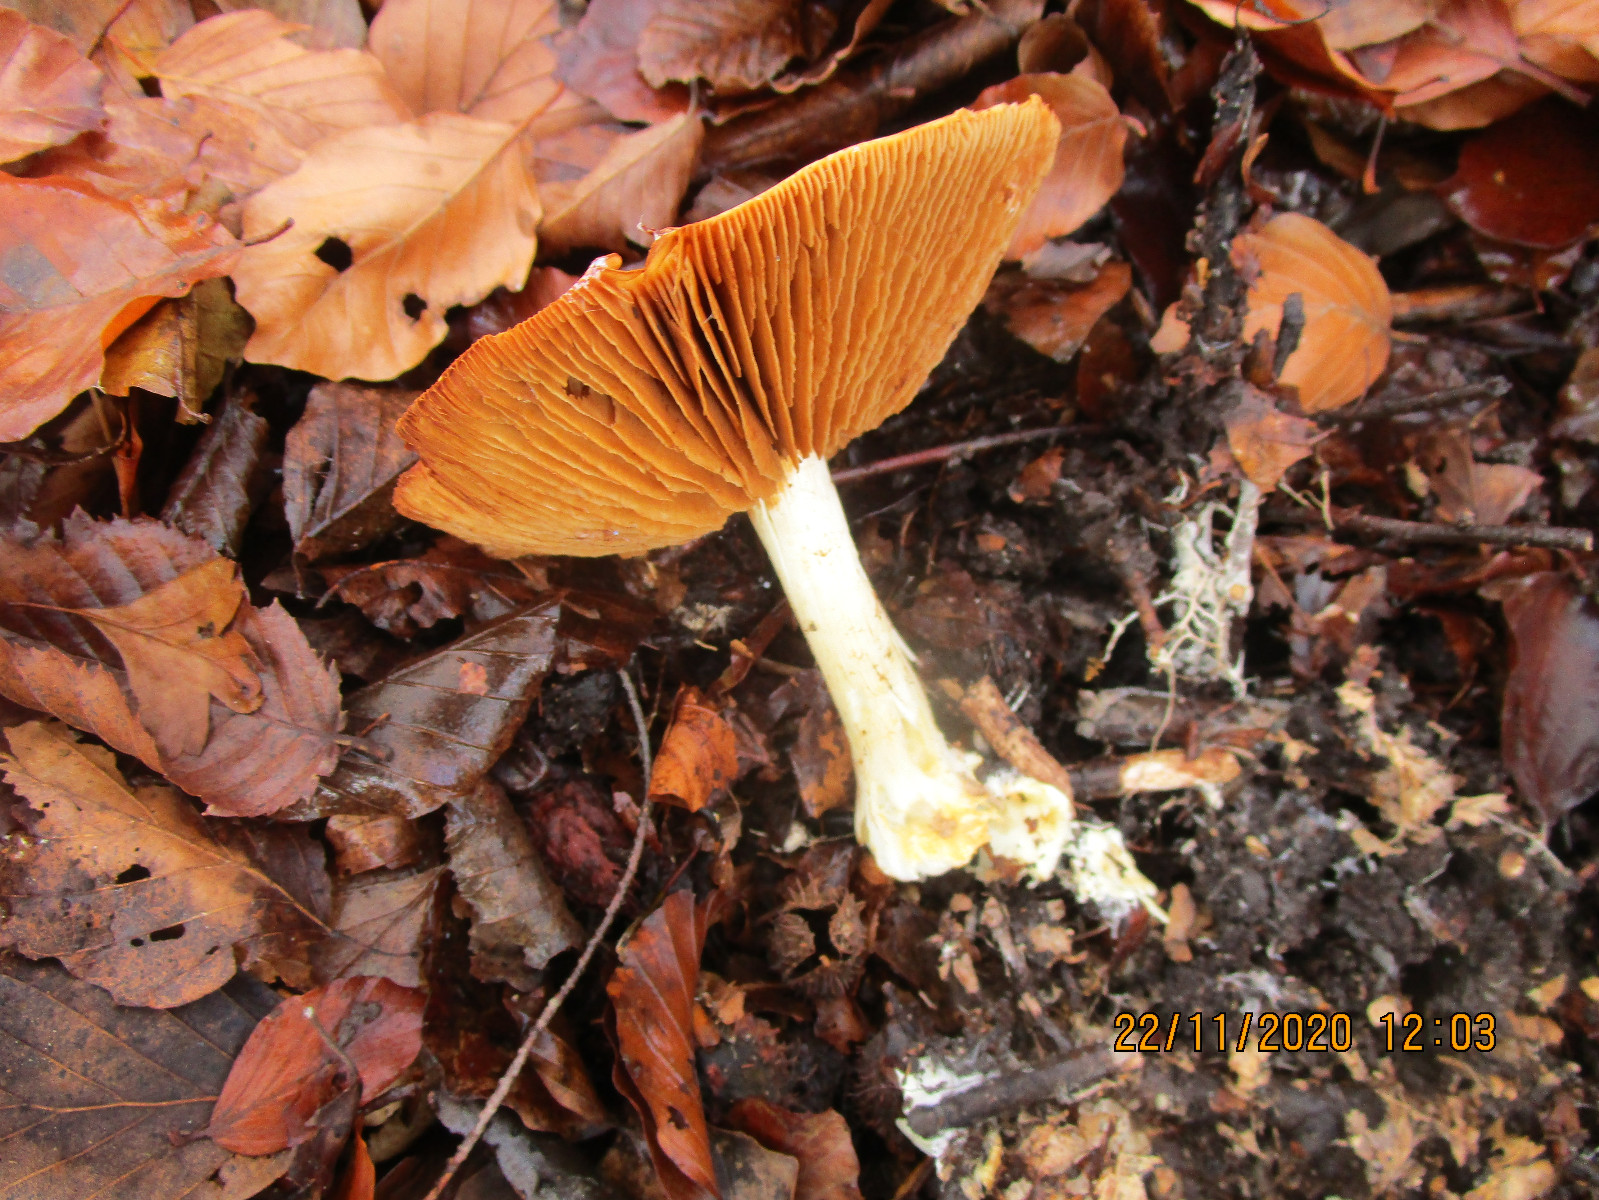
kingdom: Fungi
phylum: Basidiomycota
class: Agaricomycetes
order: Agaricales
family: Cortinariaceae
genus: Cortinarius
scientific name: Cortinarius
